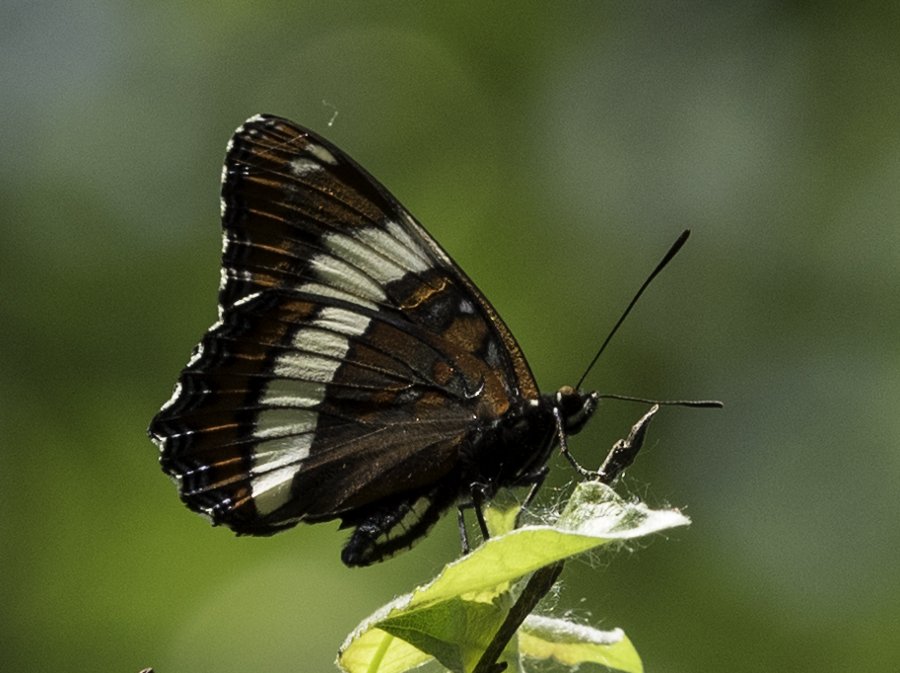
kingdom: Animalia
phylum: Arthropoda
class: Insecta
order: Lepidoptera
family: Nymphalidae
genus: Limenitis
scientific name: Limenitis arthemis
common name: Red-spotted Admiral
